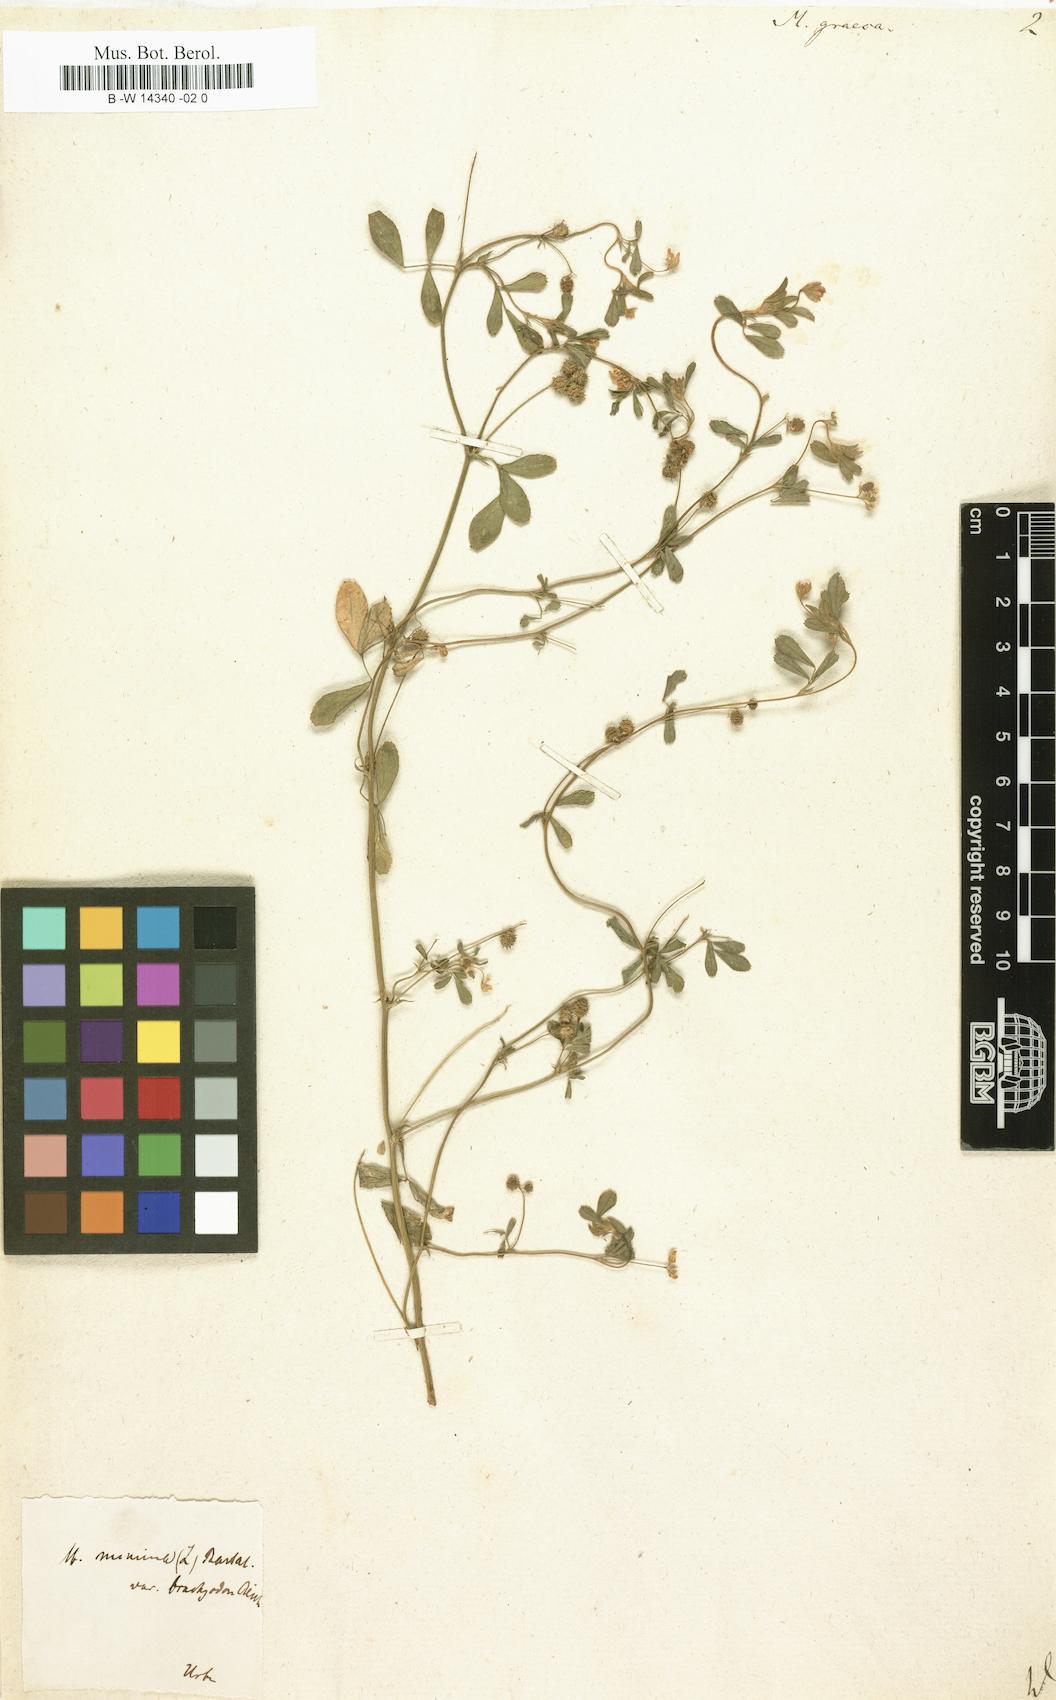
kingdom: Plantae
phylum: Tracheophyta
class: Magnoliopsida
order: Fabales
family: Fabaceae
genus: Medicago
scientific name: Medicago minima
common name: Little bur-clover
